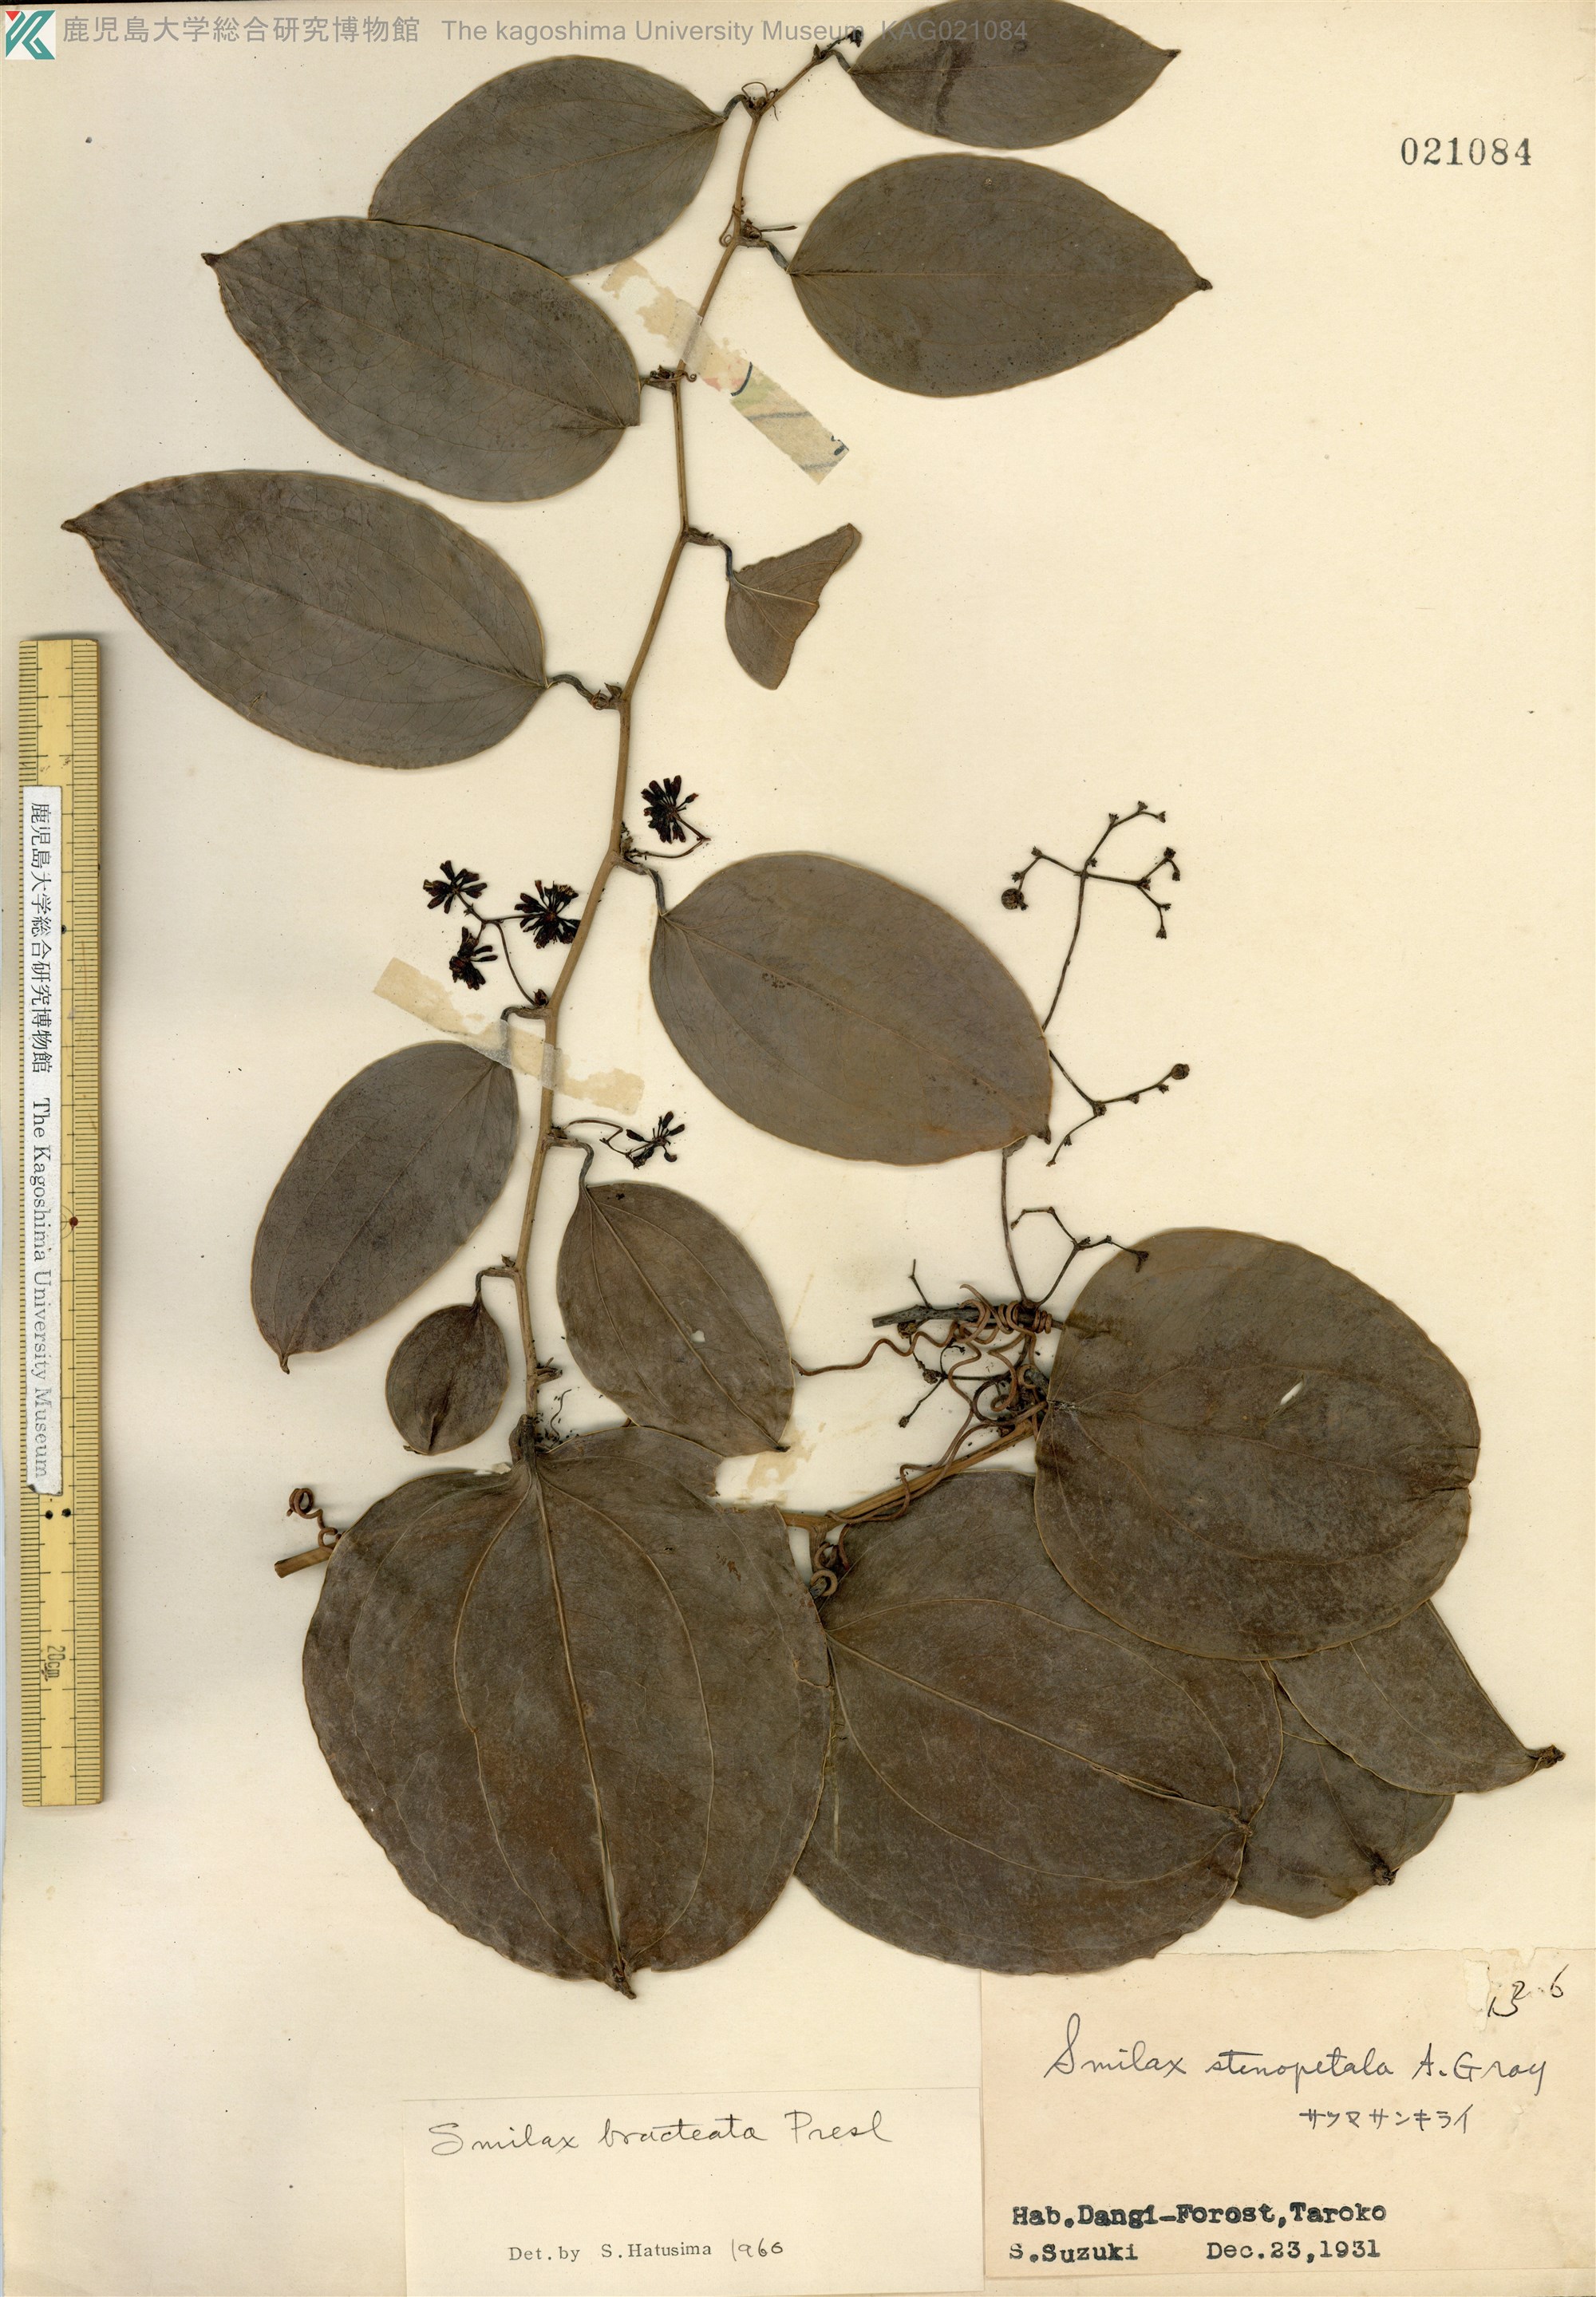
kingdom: Plantae
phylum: Tracheophyta
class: Liliopsida
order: Liliales
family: Smilacaceae
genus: Smilax
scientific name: Smilax bracteata
